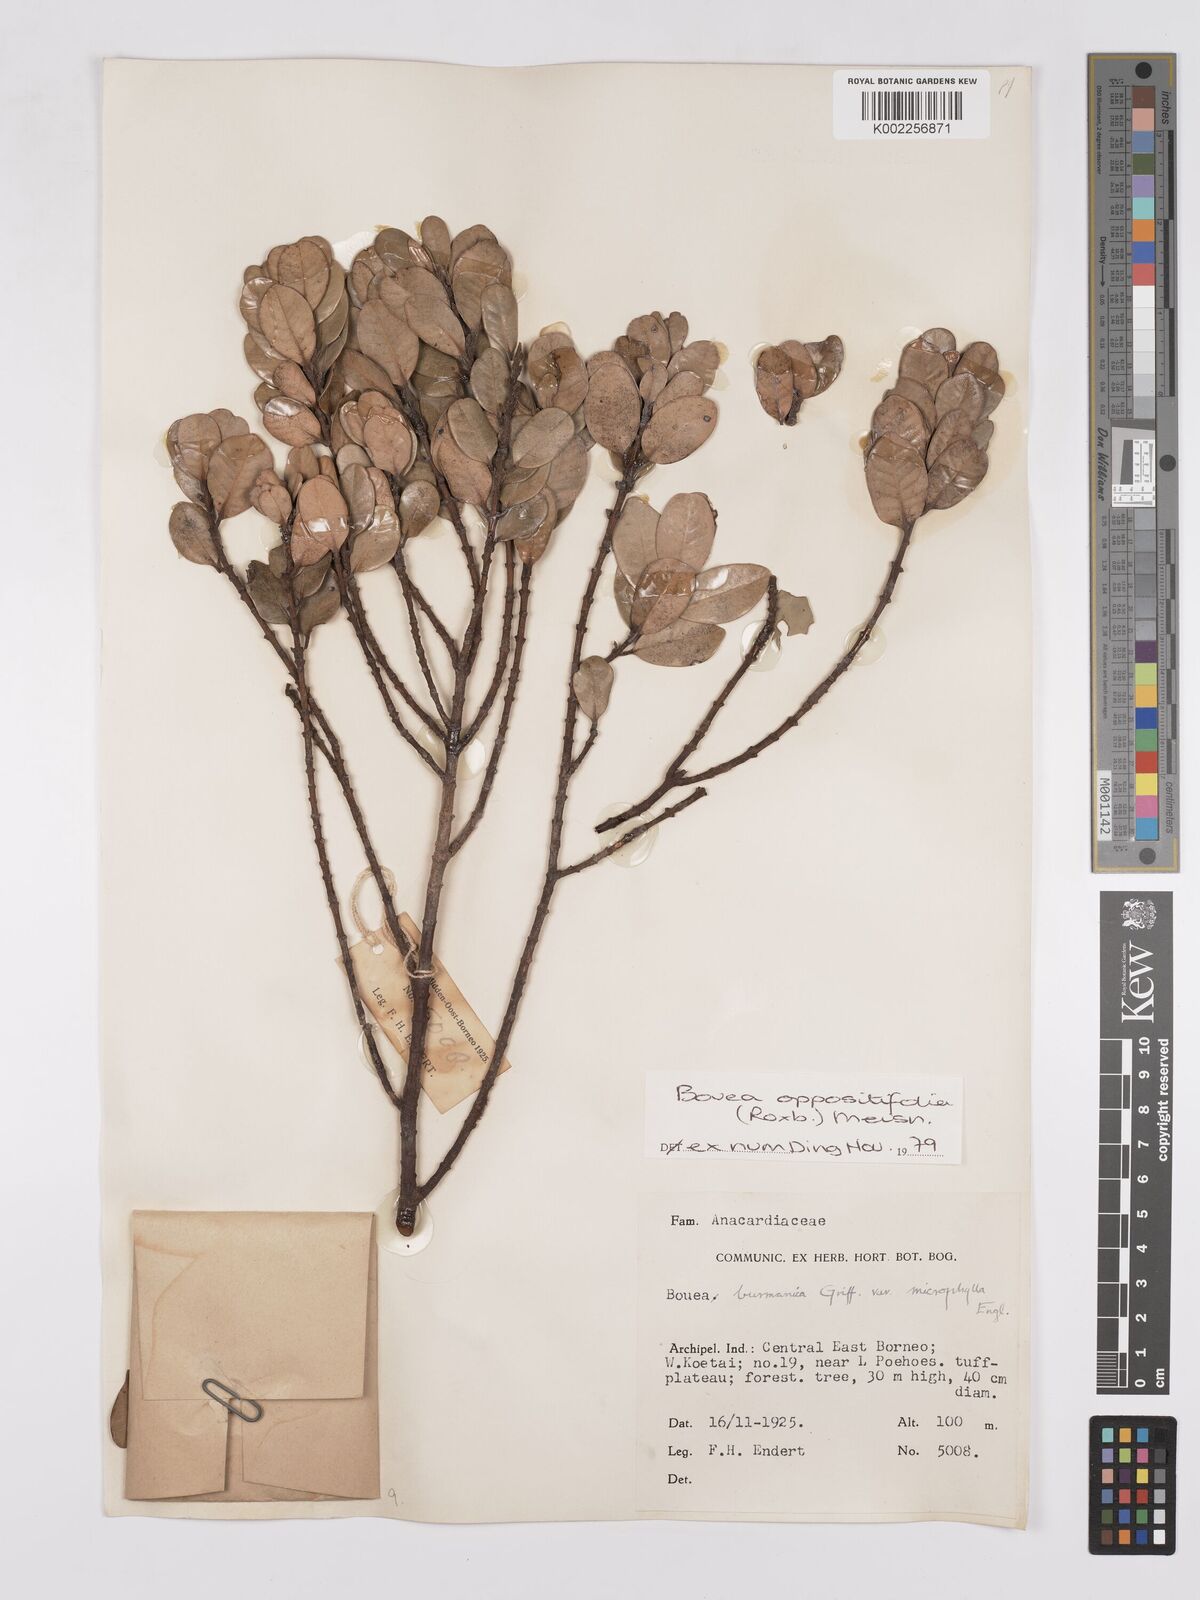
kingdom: Plantae
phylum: Tracheophyta
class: Magnoliopsida
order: Sapindales
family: Anacardiaceae
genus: Bouea
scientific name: Bouea oppositifolia
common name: Narrow-leaved kundang
